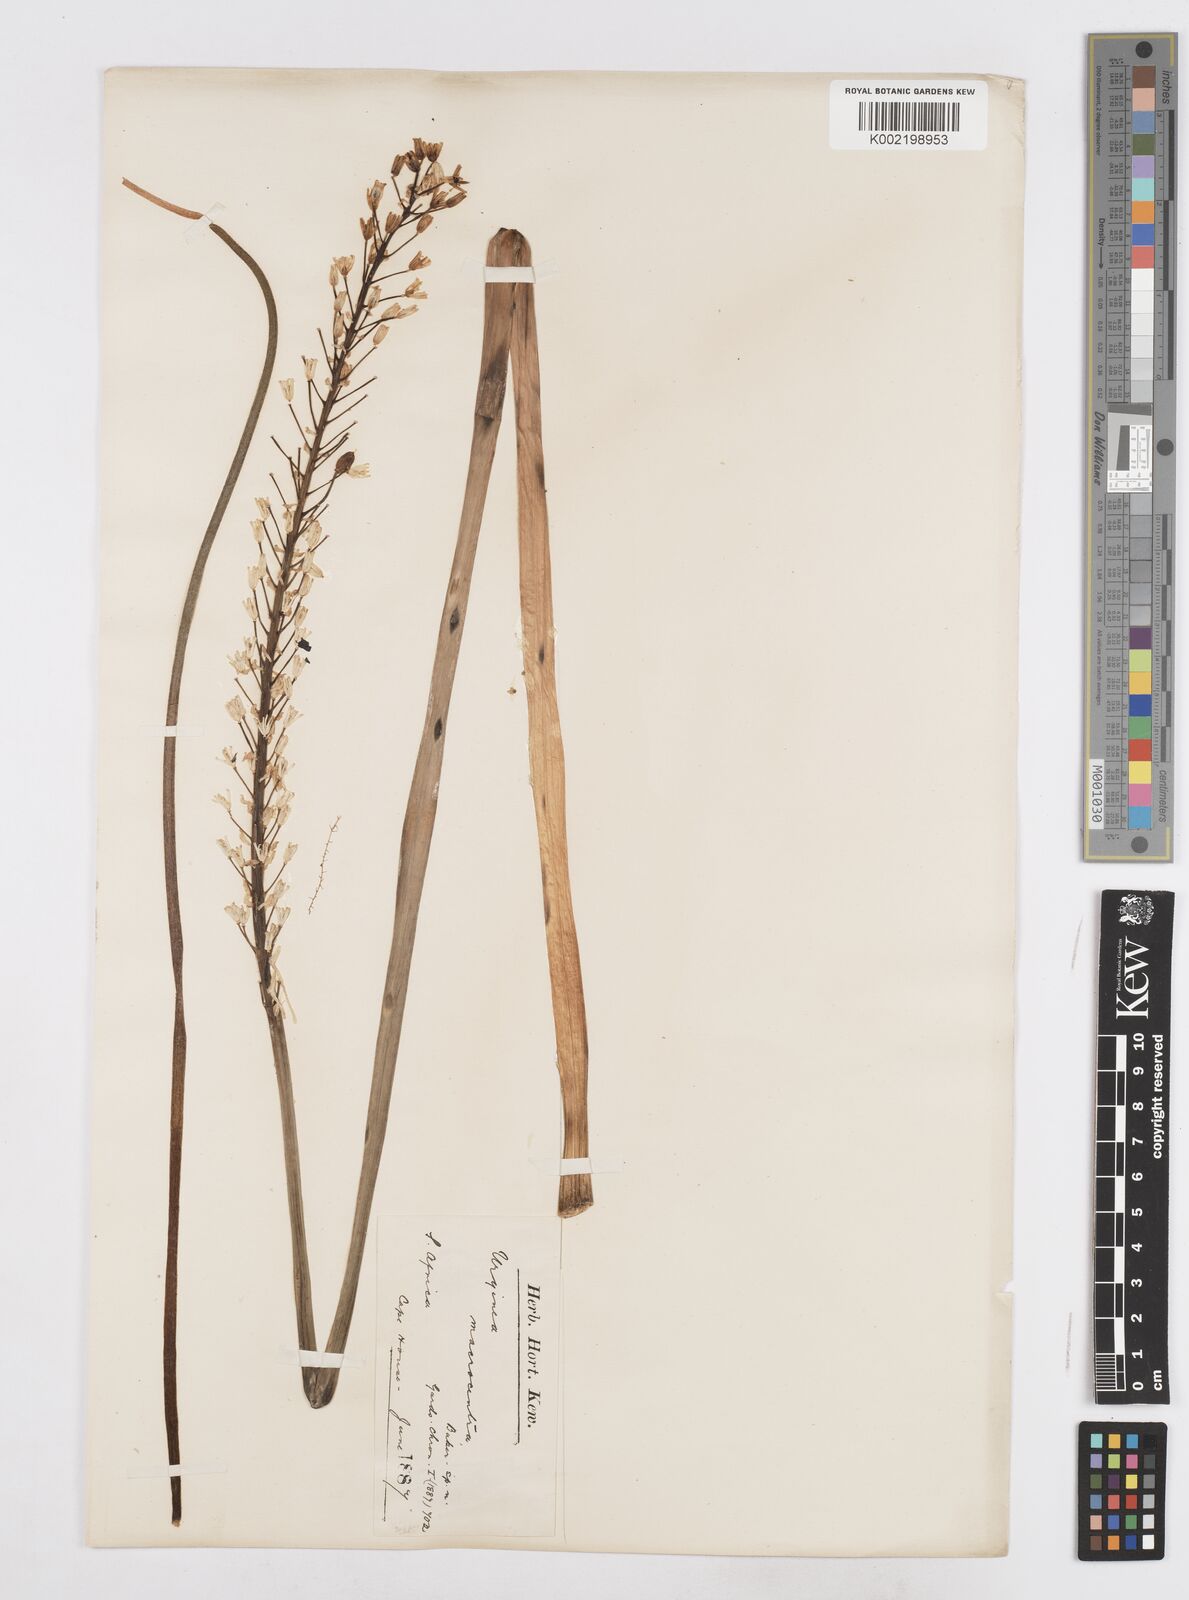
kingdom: Plantae
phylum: Tracheophyta
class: Liliopsida
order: Asparagales
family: Asparagaceae
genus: Drimia
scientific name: Drimia macrocentra
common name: Natal slangkop
